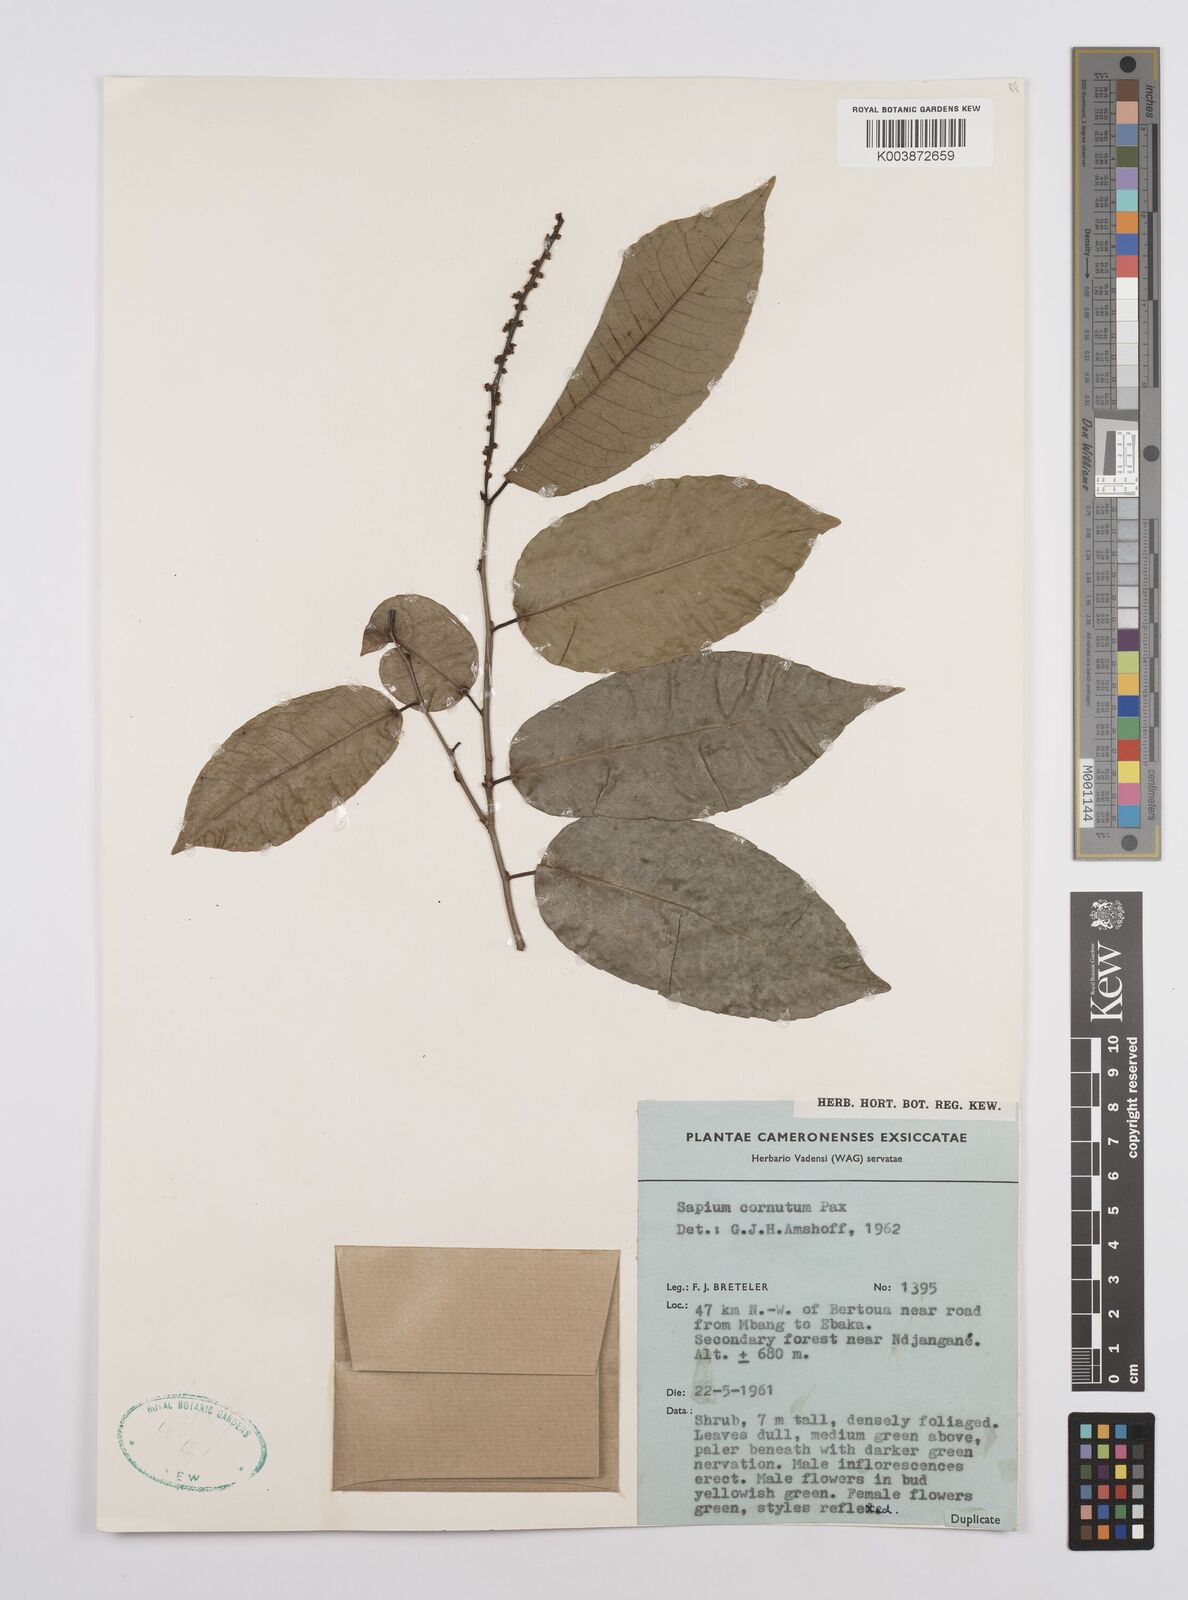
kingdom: Plantae
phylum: Tracheophyta
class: Magnoliopsida
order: Malpighiales
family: Euphorbiaceae
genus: Sclerocroton
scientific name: Sclerocroton cornutus
